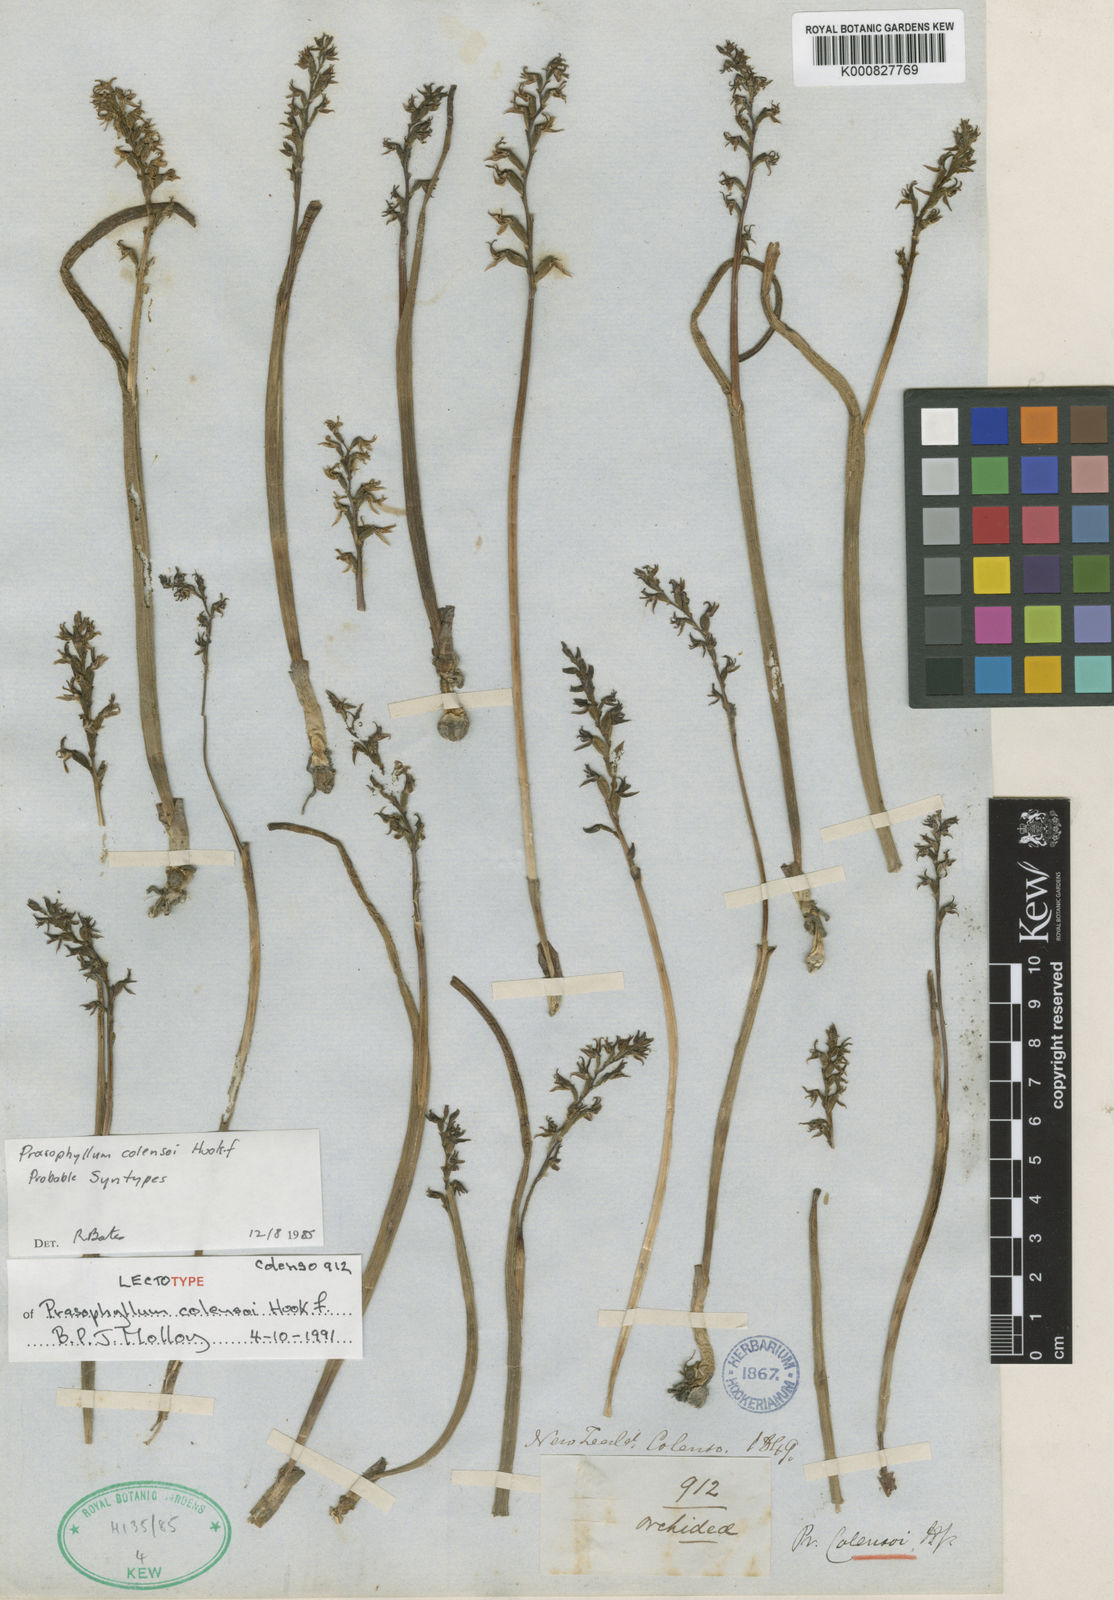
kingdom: Plantae
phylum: Tracheophyta
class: Liliopsida
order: Asparagales
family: Orchidaceae
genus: Prasophyllum
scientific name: Prasophyllum colensoi
